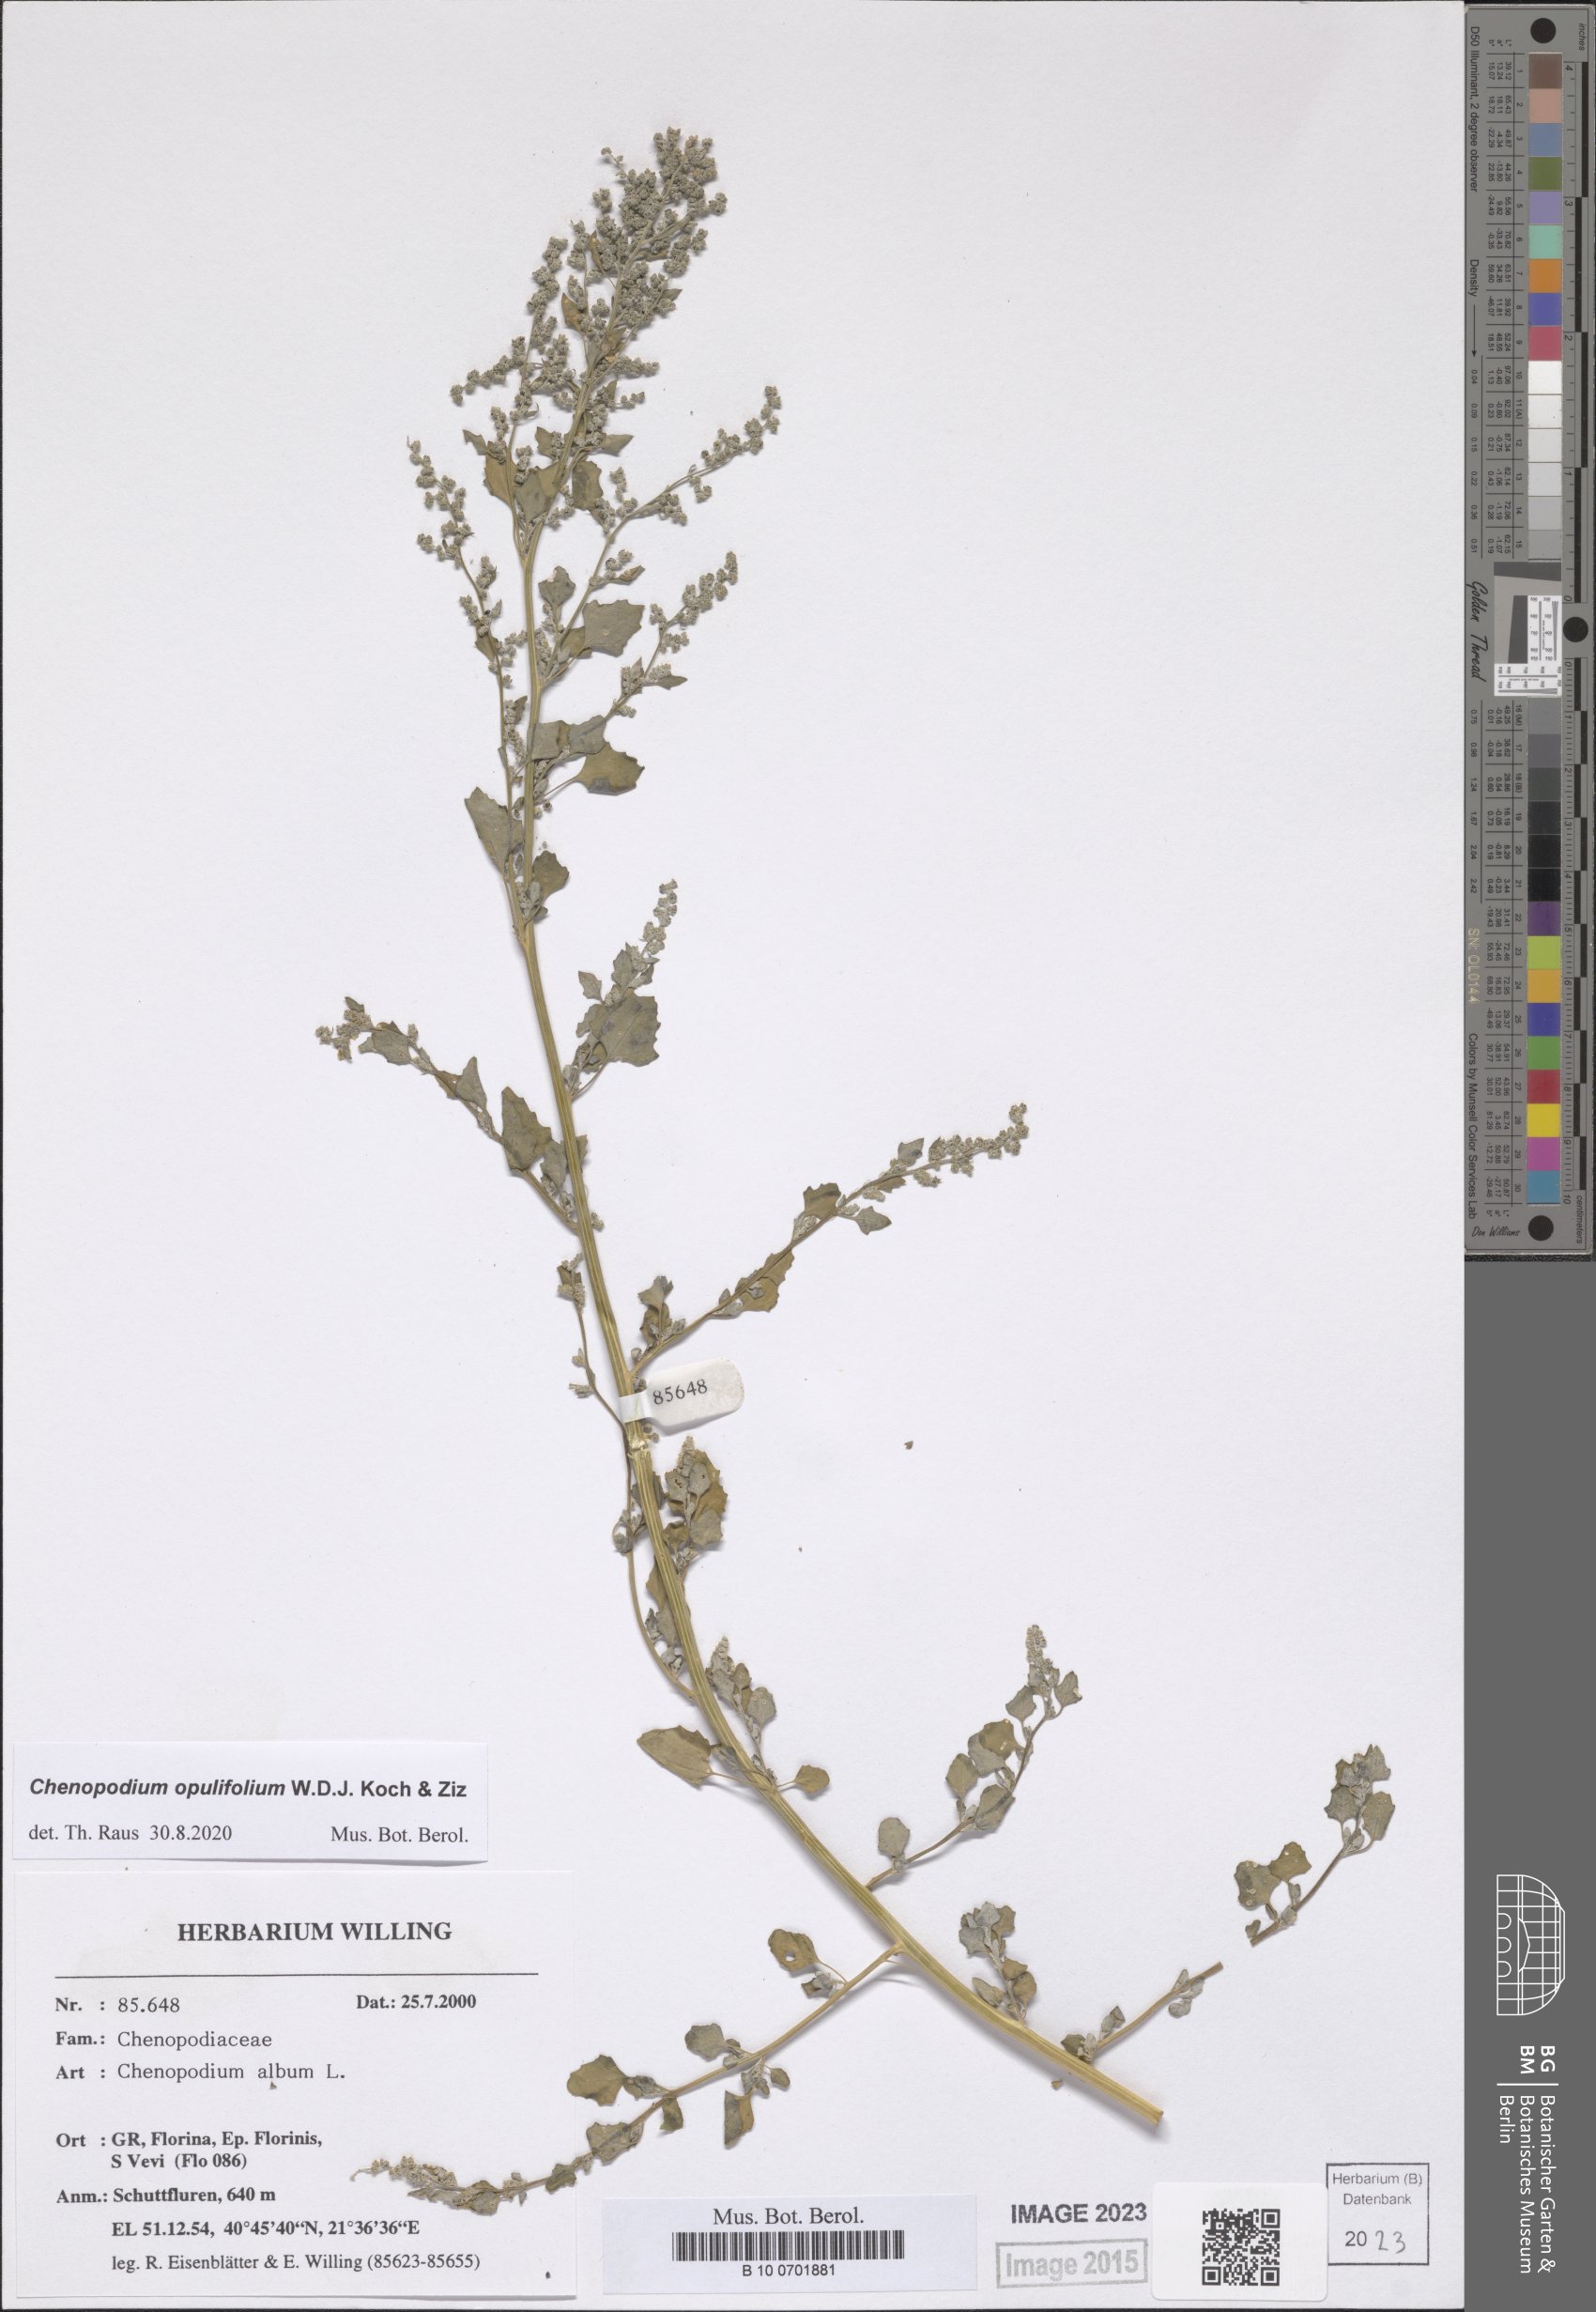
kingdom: Plantae
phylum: Tracheophyta
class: Magnoliopsida
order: Caryophyllales
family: Amaranthaceae
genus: Chenopodium
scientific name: Chenopodium opulifolium
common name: Grey goosefoot
